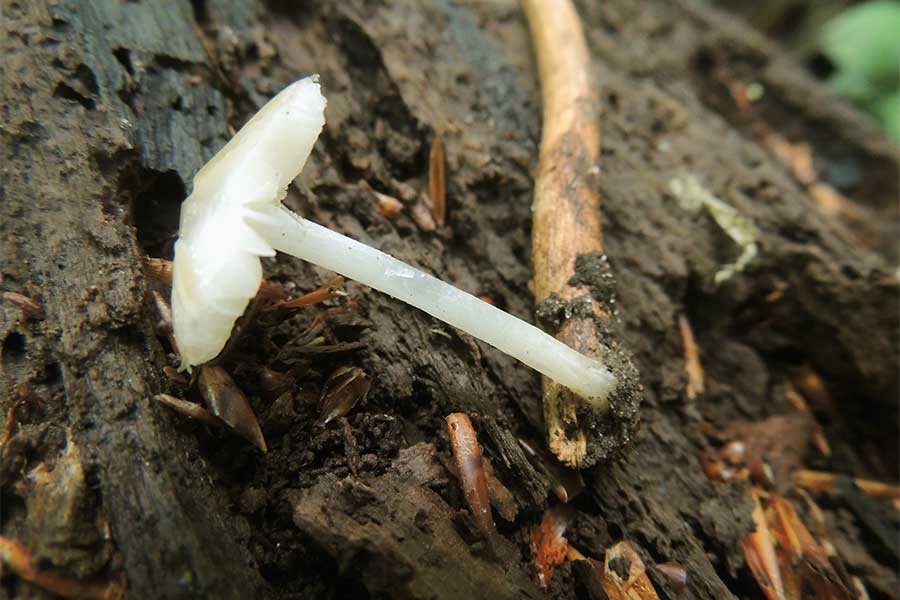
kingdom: Fungi
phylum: Basidiomycota
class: Agaricomycetes
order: Agaricales
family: Porotheleaceae
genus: Hydropodia
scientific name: Hydropodia subalpina
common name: vår-fnugfod
